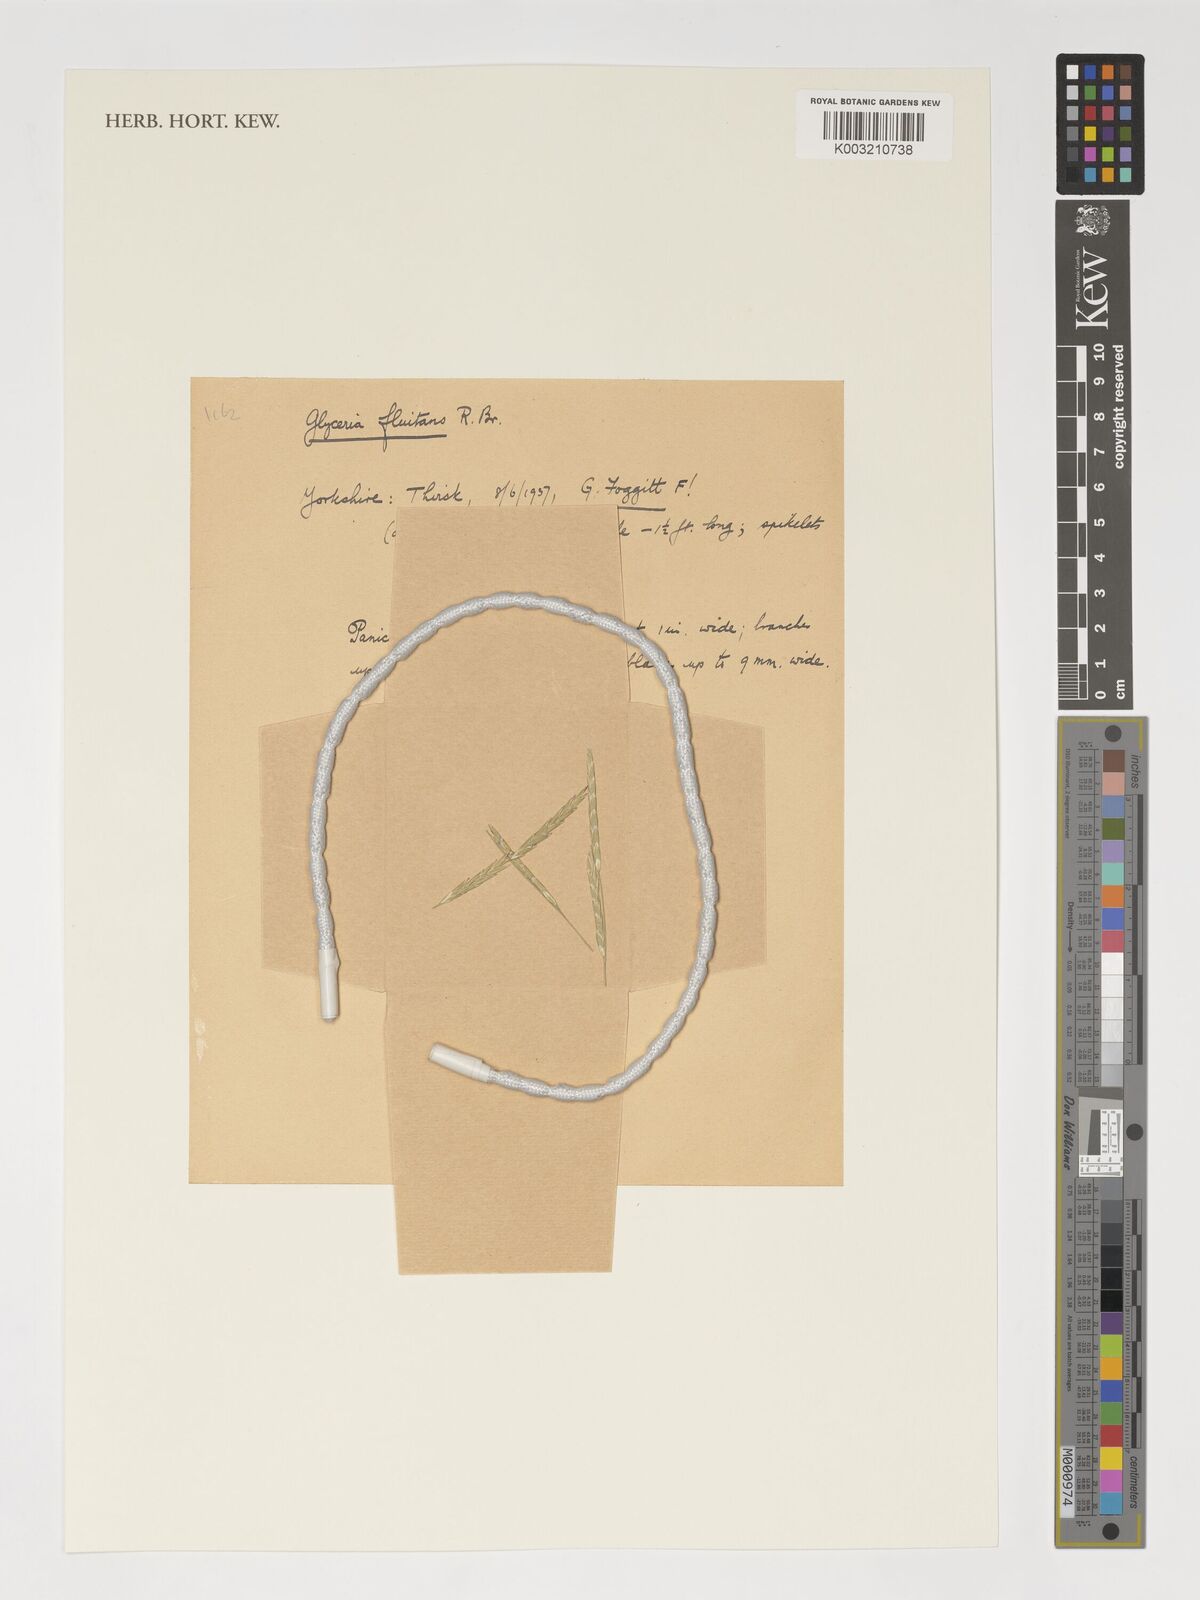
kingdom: Plantae
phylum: Tracheophyta
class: Liliopsida
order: Poales
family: Poaceae
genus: Glyceria
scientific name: Glyceria fluitans
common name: Floating sweet-grass
